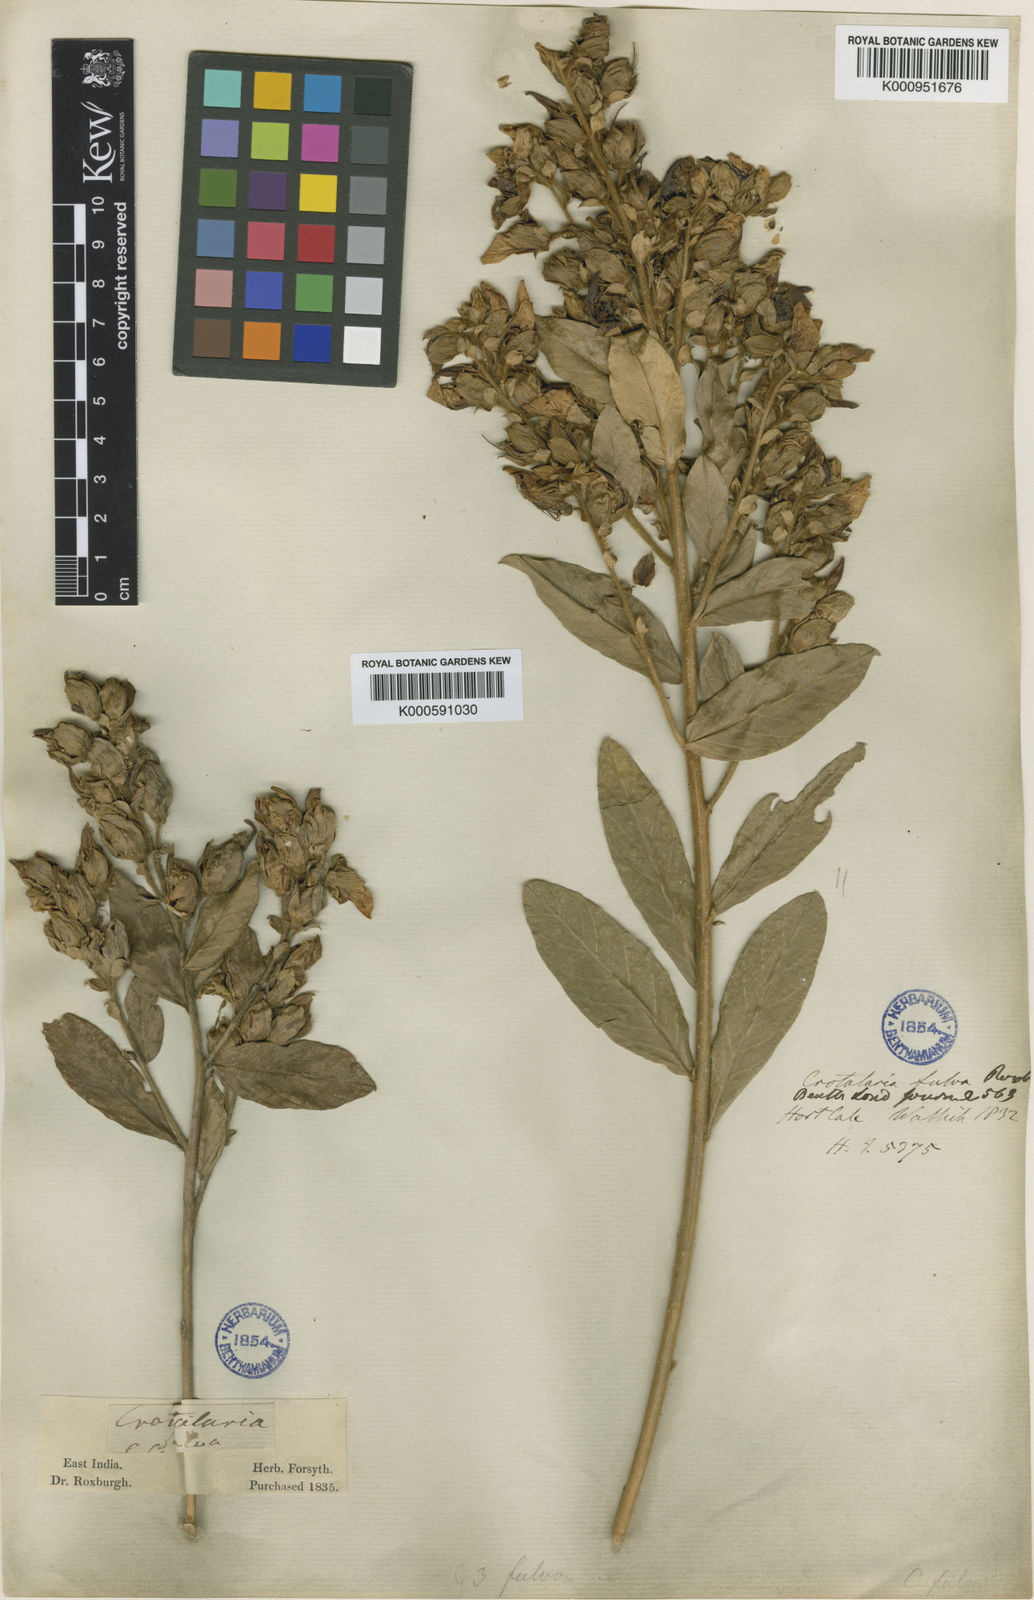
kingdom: Plantae
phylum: Tracheophyta
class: Magnoliopsida
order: Fabales
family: Fabaceae
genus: Crotalaria
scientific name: Crotalaria berteroana
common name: Berteron's rattlebox
